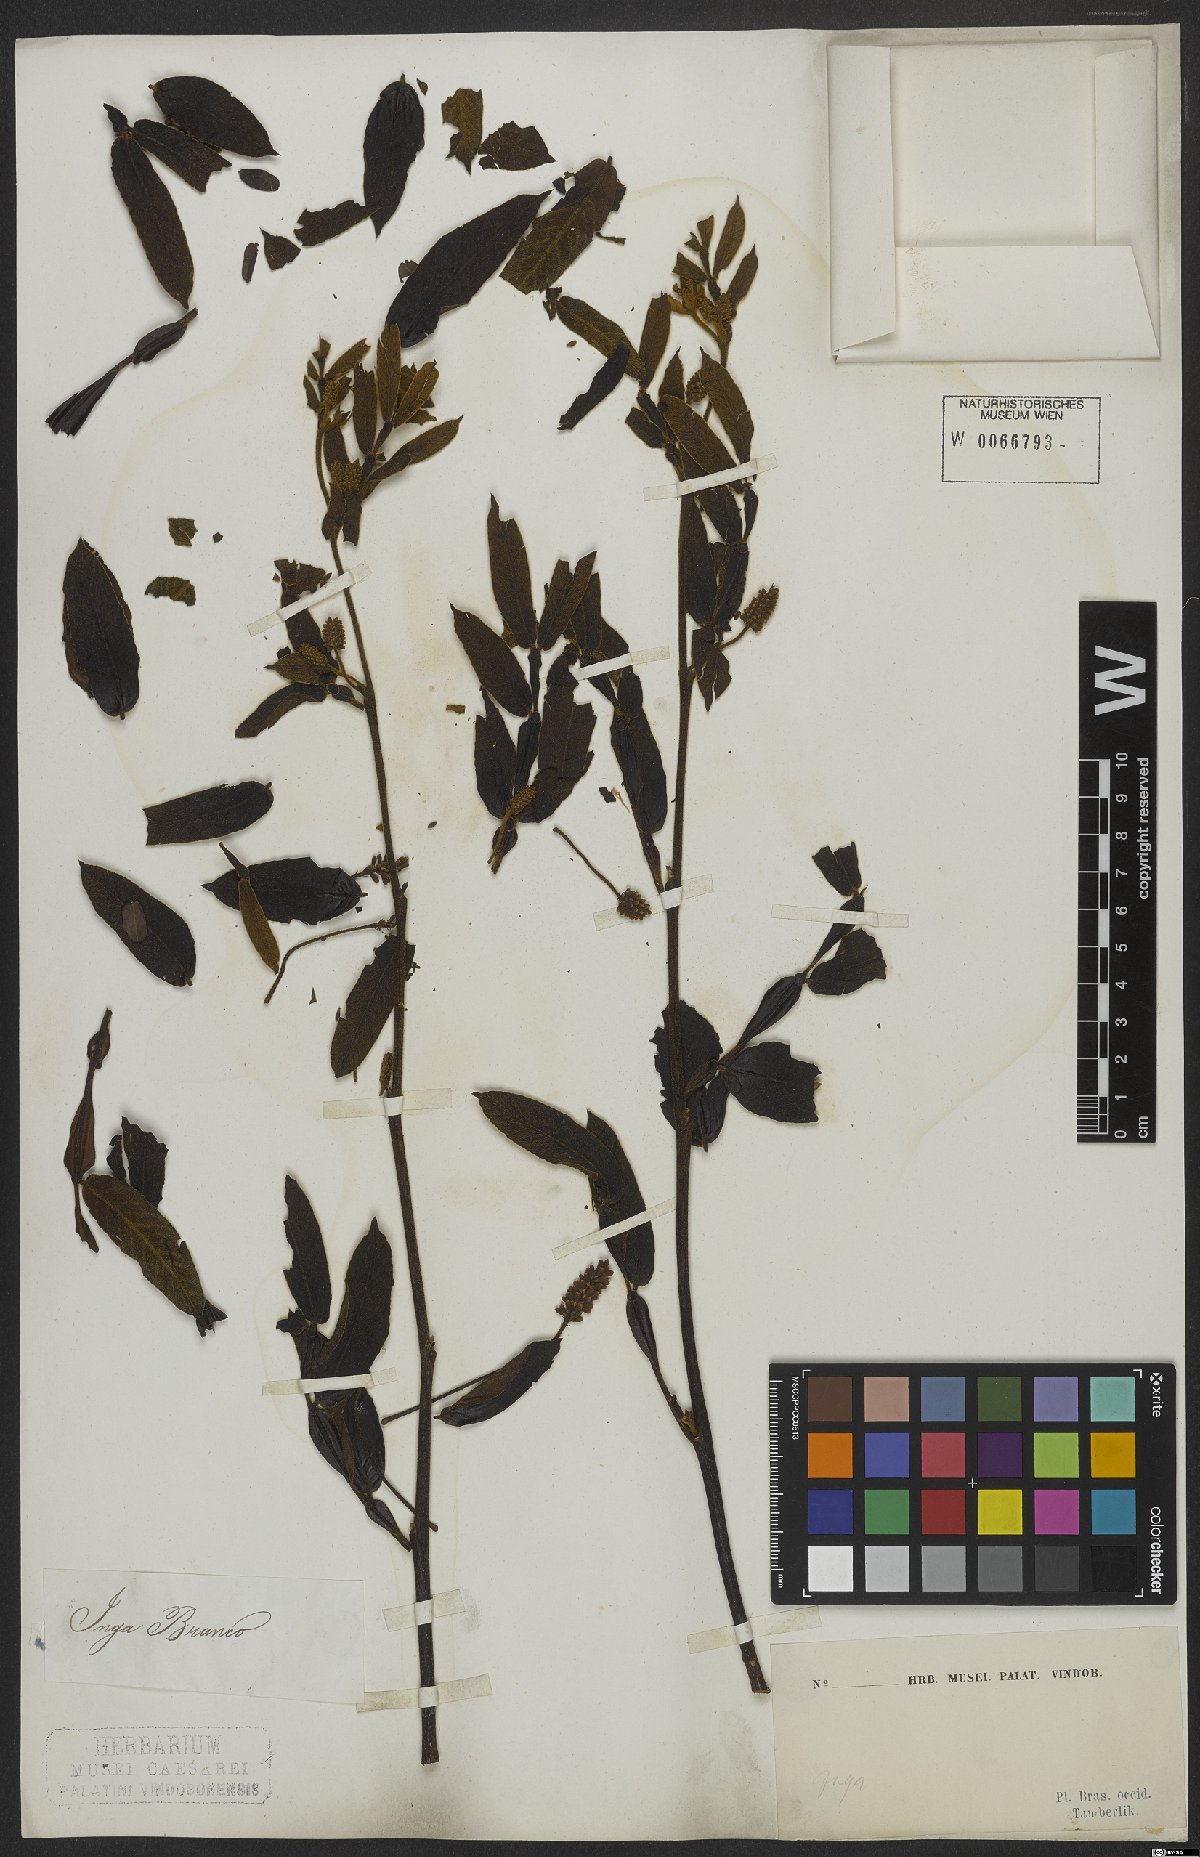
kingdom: Plantae
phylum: Tracheophyta
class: Magnoliopsida
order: Fabales
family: Fabaceae
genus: Inga
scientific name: Inga
